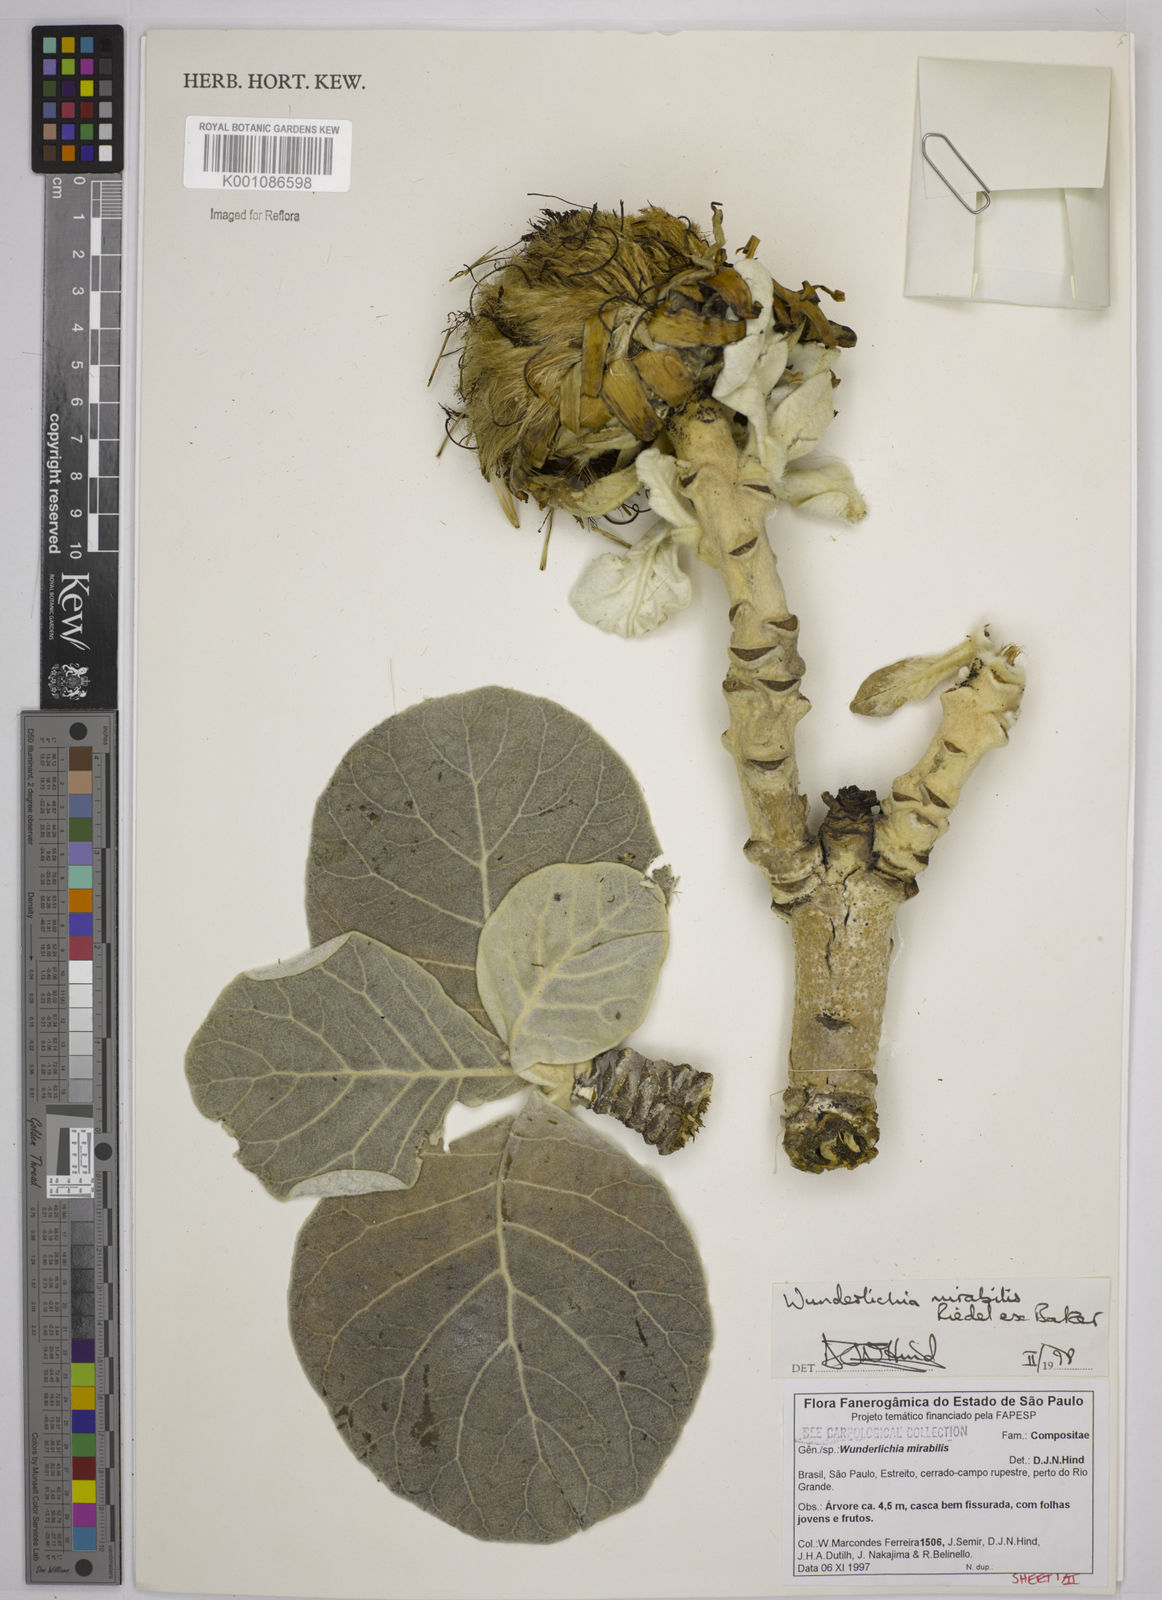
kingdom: Plantae
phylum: Tracheophyta
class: Magnoliopsida
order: Asterales
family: Asteraceae
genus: Wunderlichia
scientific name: Wunderlichia mirabilis
